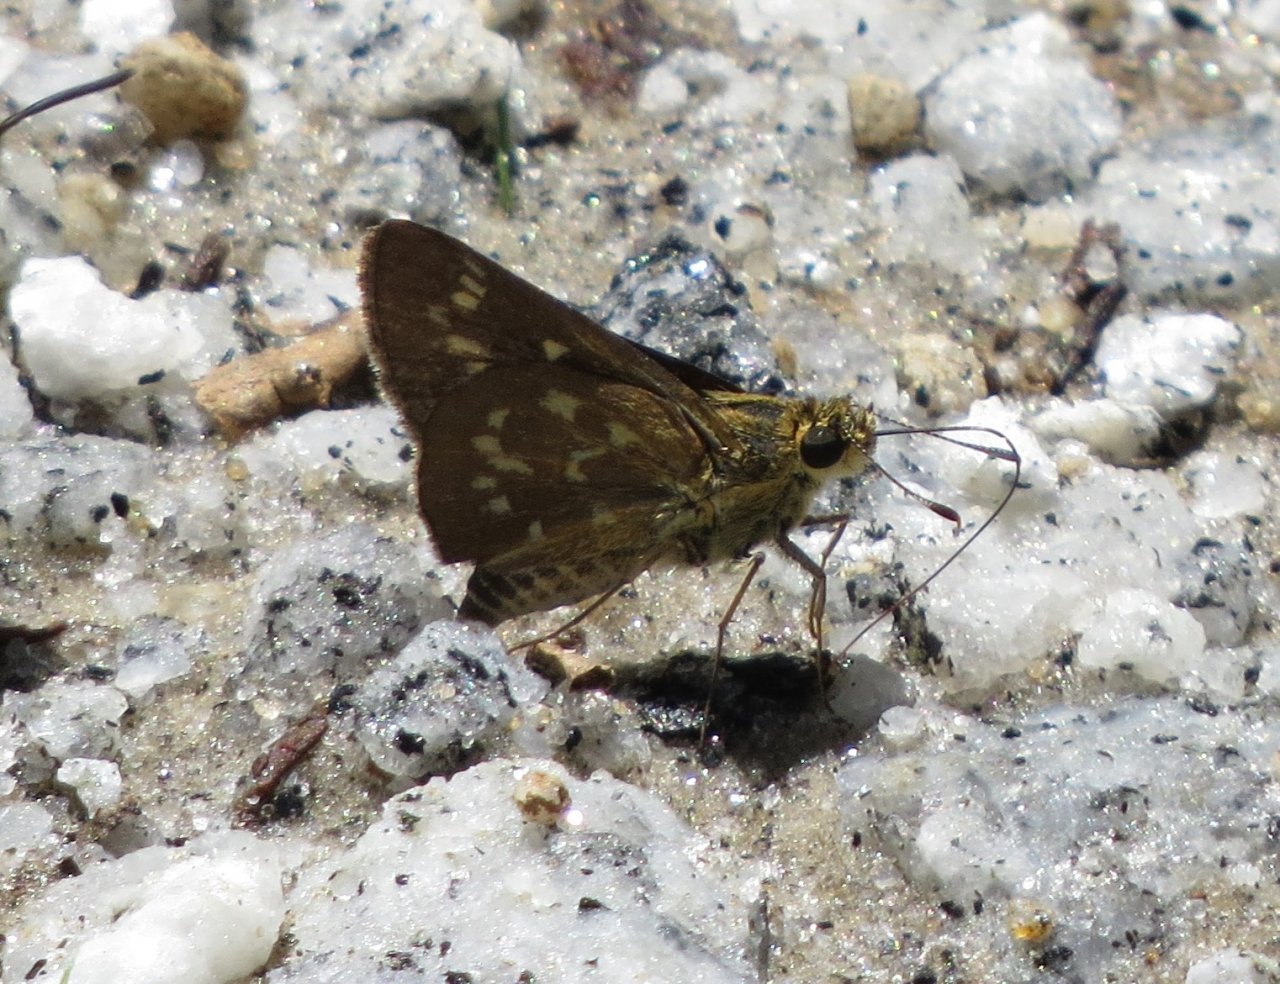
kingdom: Animalia
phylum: Arthropoda
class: Insecta
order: Lepidoptera
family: Hesperiidae
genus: Mastor
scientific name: Mastor carolina
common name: Reversed Roadside-skipper
